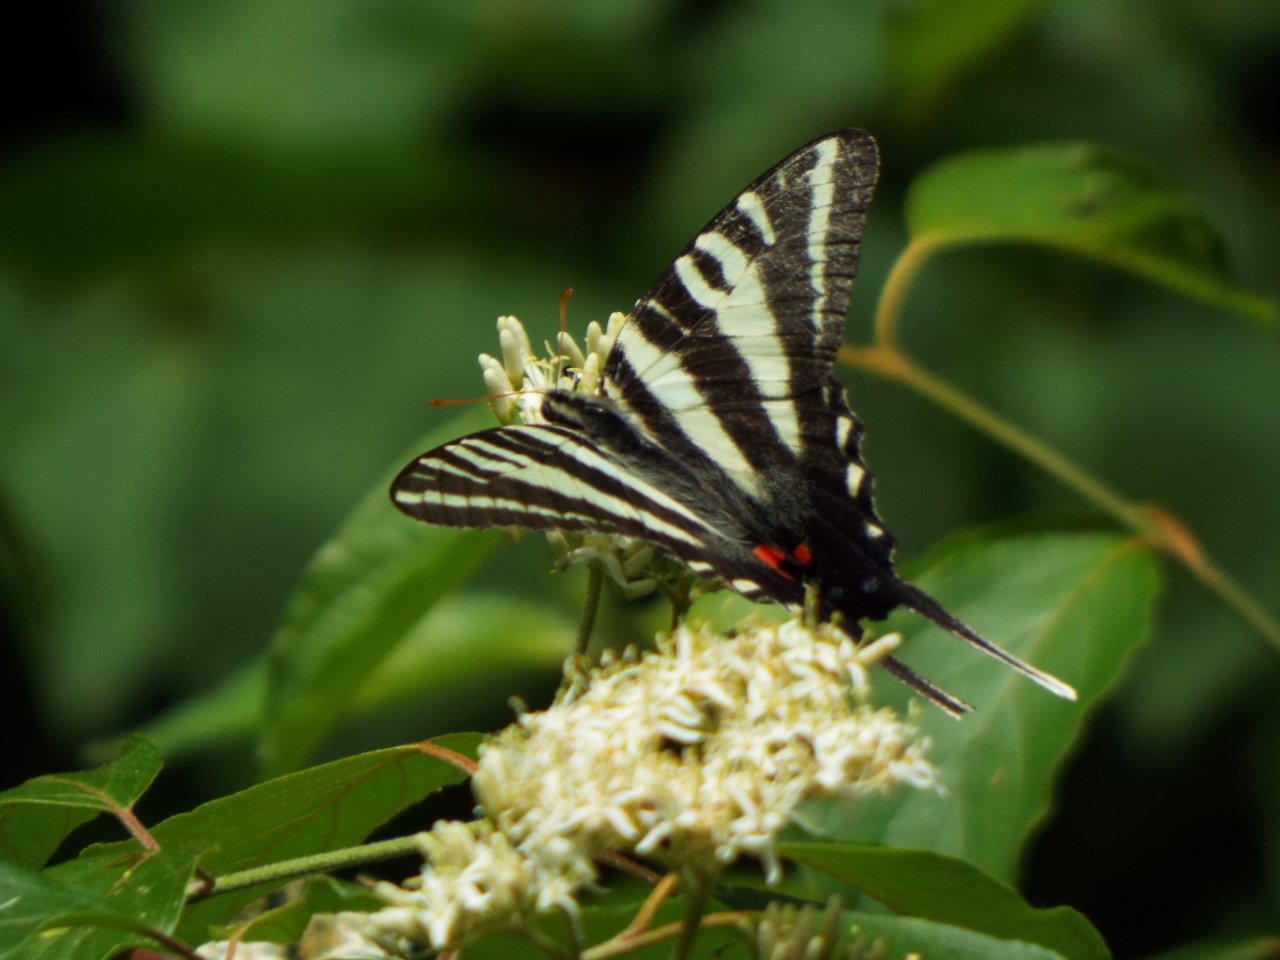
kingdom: Animalia
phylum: Arthropoda
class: Insecta
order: Lepidoptera
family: Papilionidae
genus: Protographium
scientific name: Protographium marcellus
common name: Zebra Swallowtail
